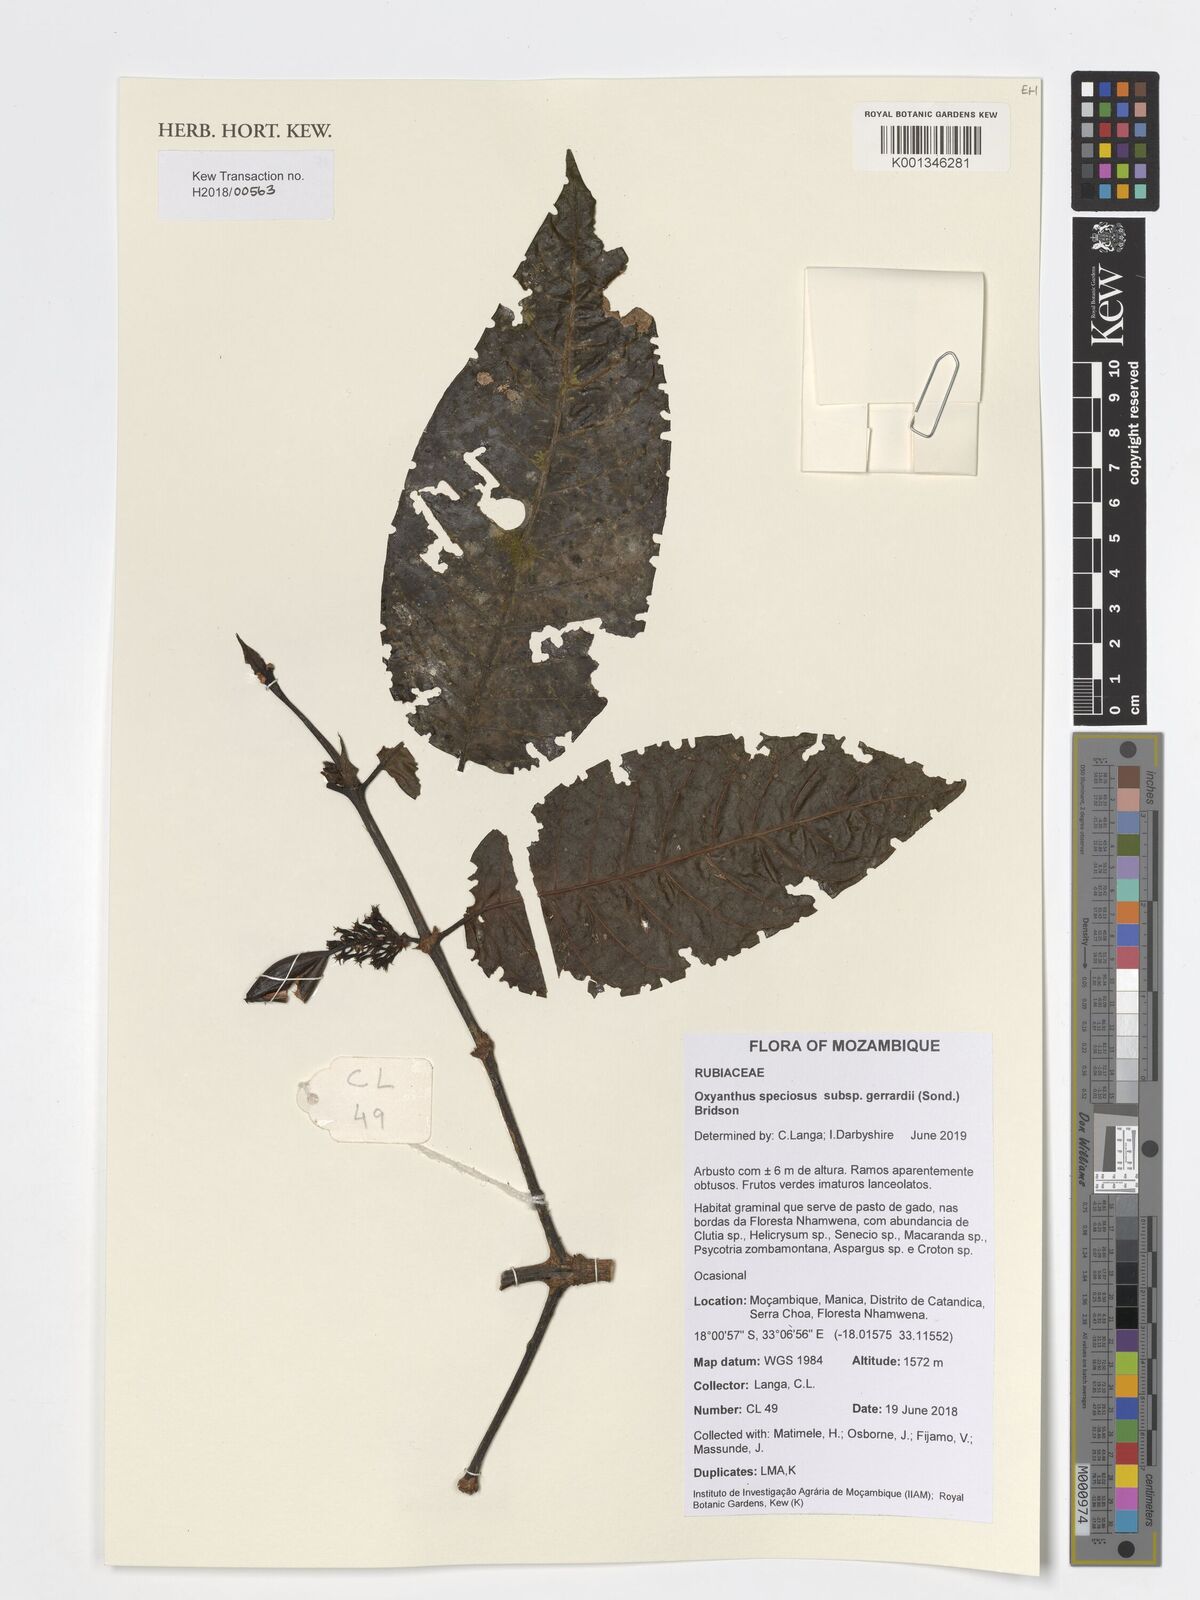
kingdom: Plantae
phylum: Tracheophyta
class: Magnoliopsida
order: Gentianales
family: Rubiaceae
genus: Oxyanthus
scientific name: Oxyanthus speciosus
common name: Whipstick loquat
